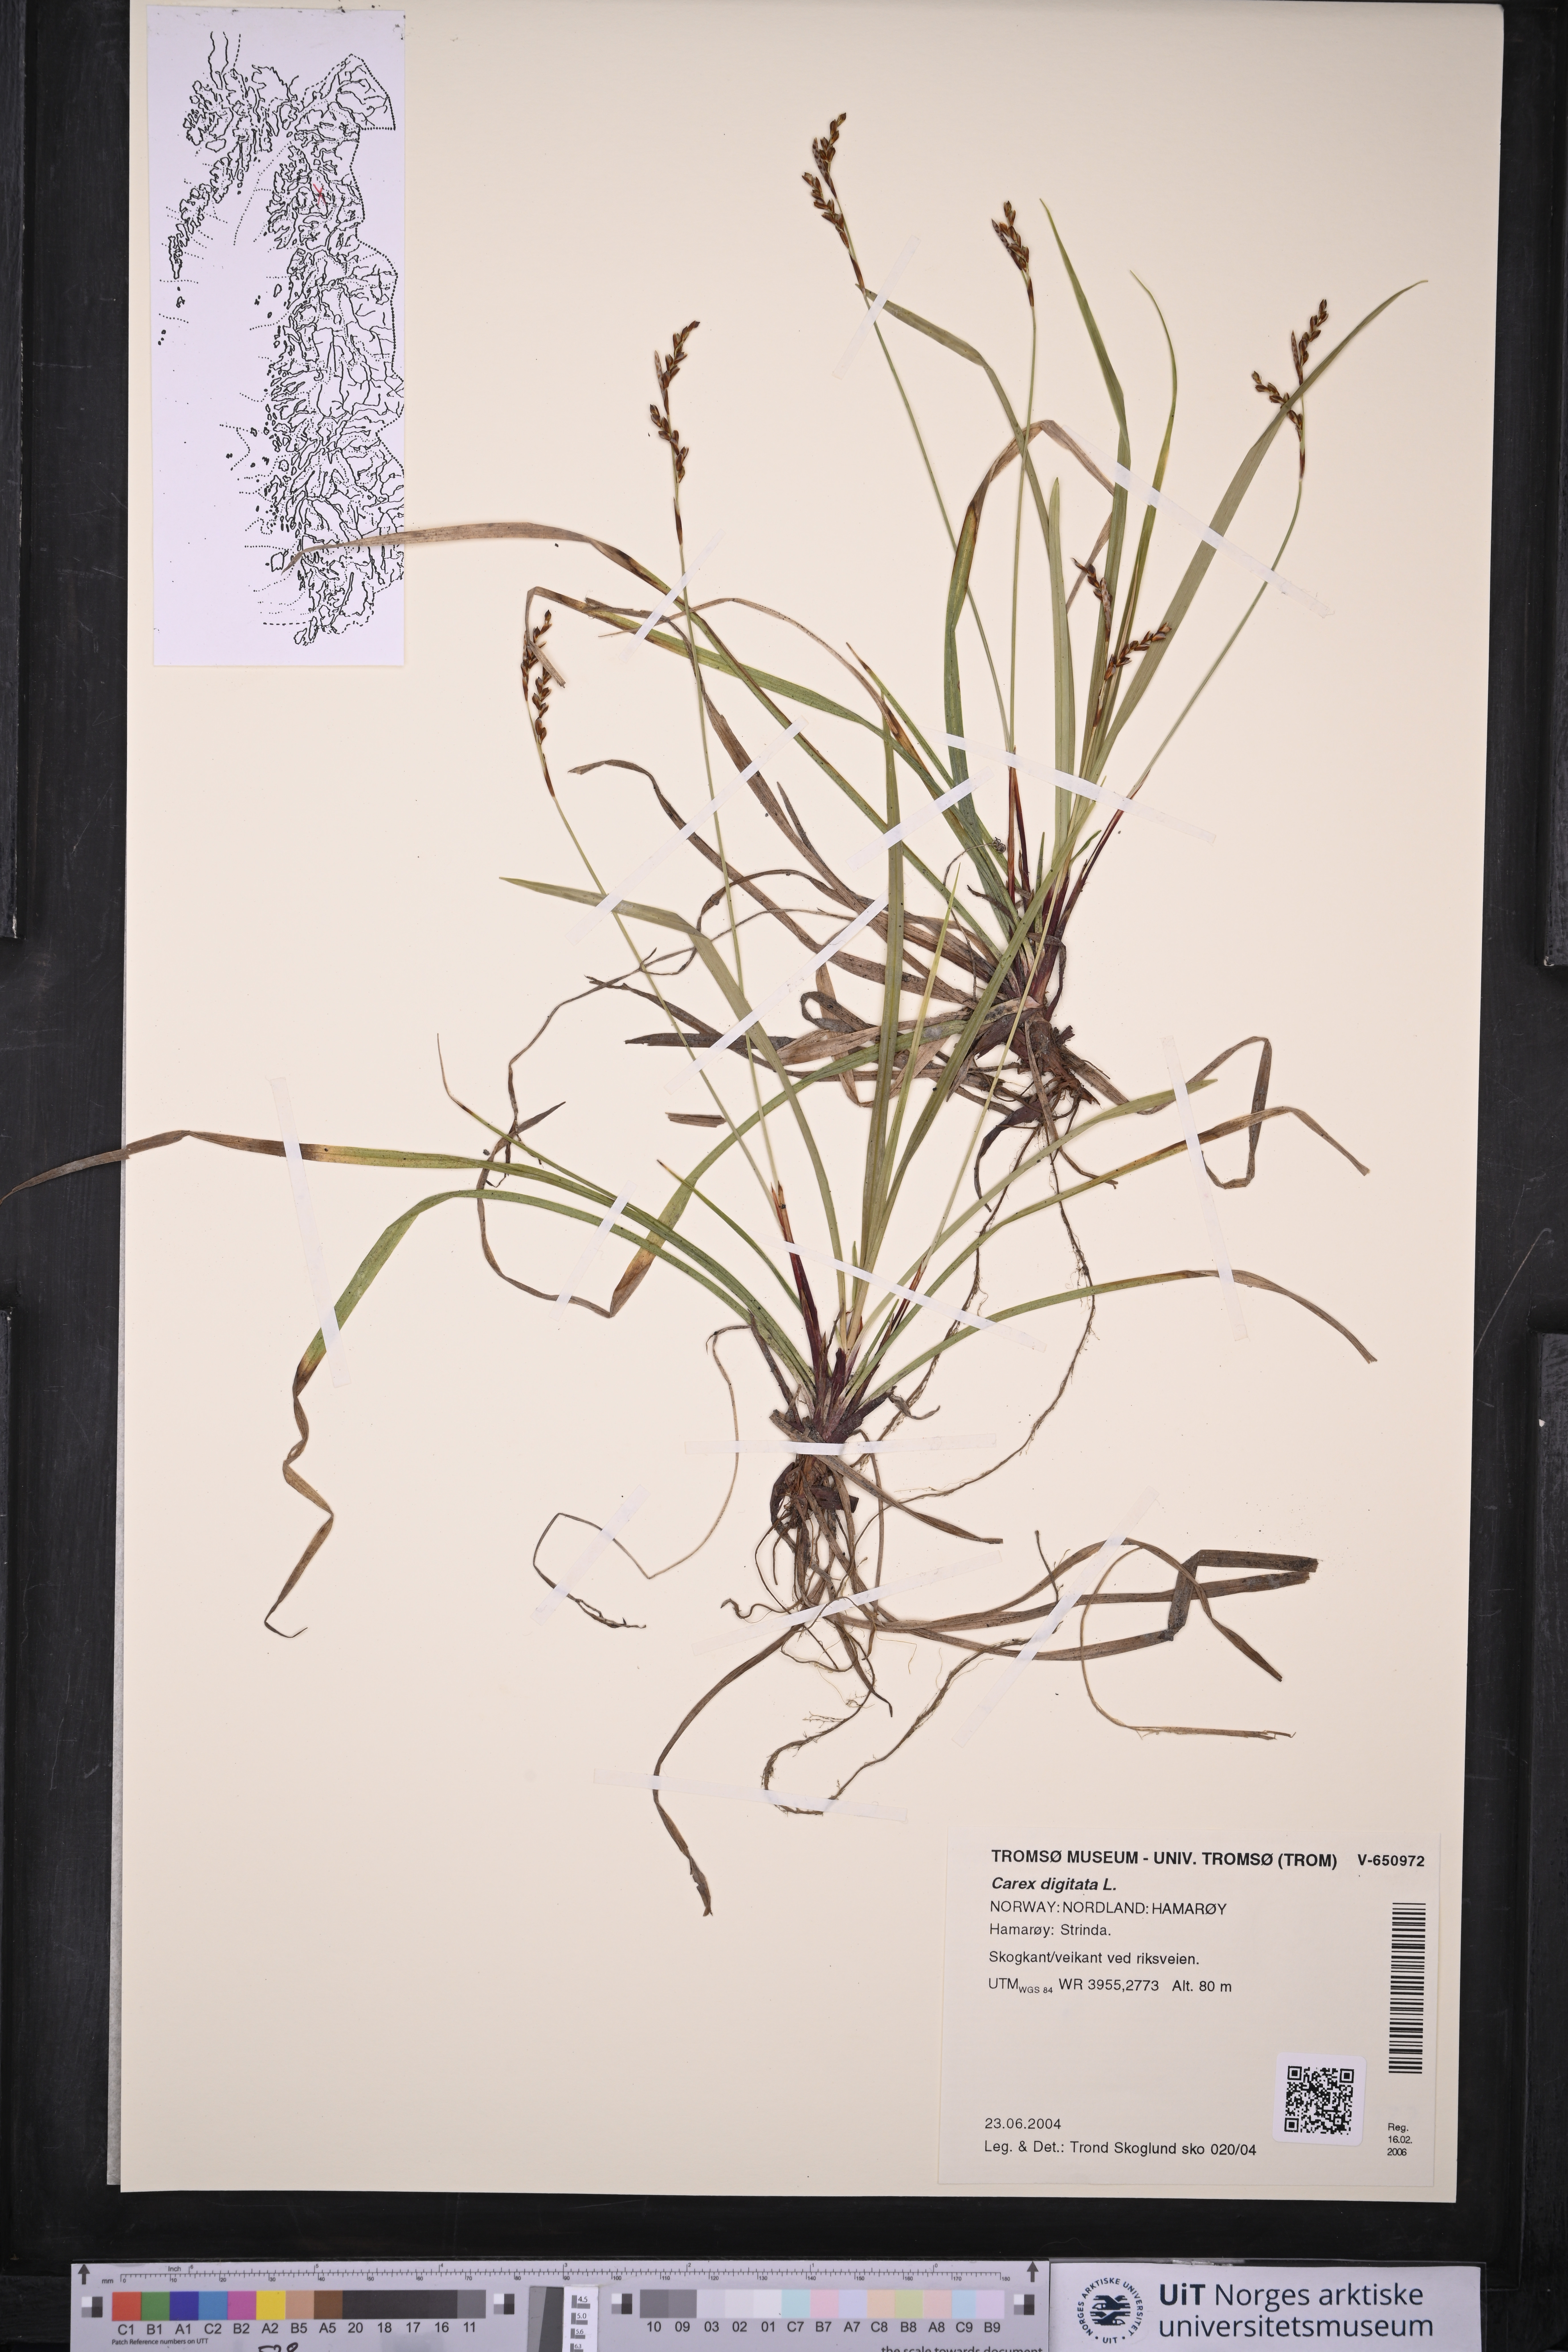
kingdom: Plantae
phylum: Tracheophyta
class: Liliopsida
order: Poales
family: Cyperaceae
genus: Carex
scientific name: Carex digitata
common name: Fingered sedge
